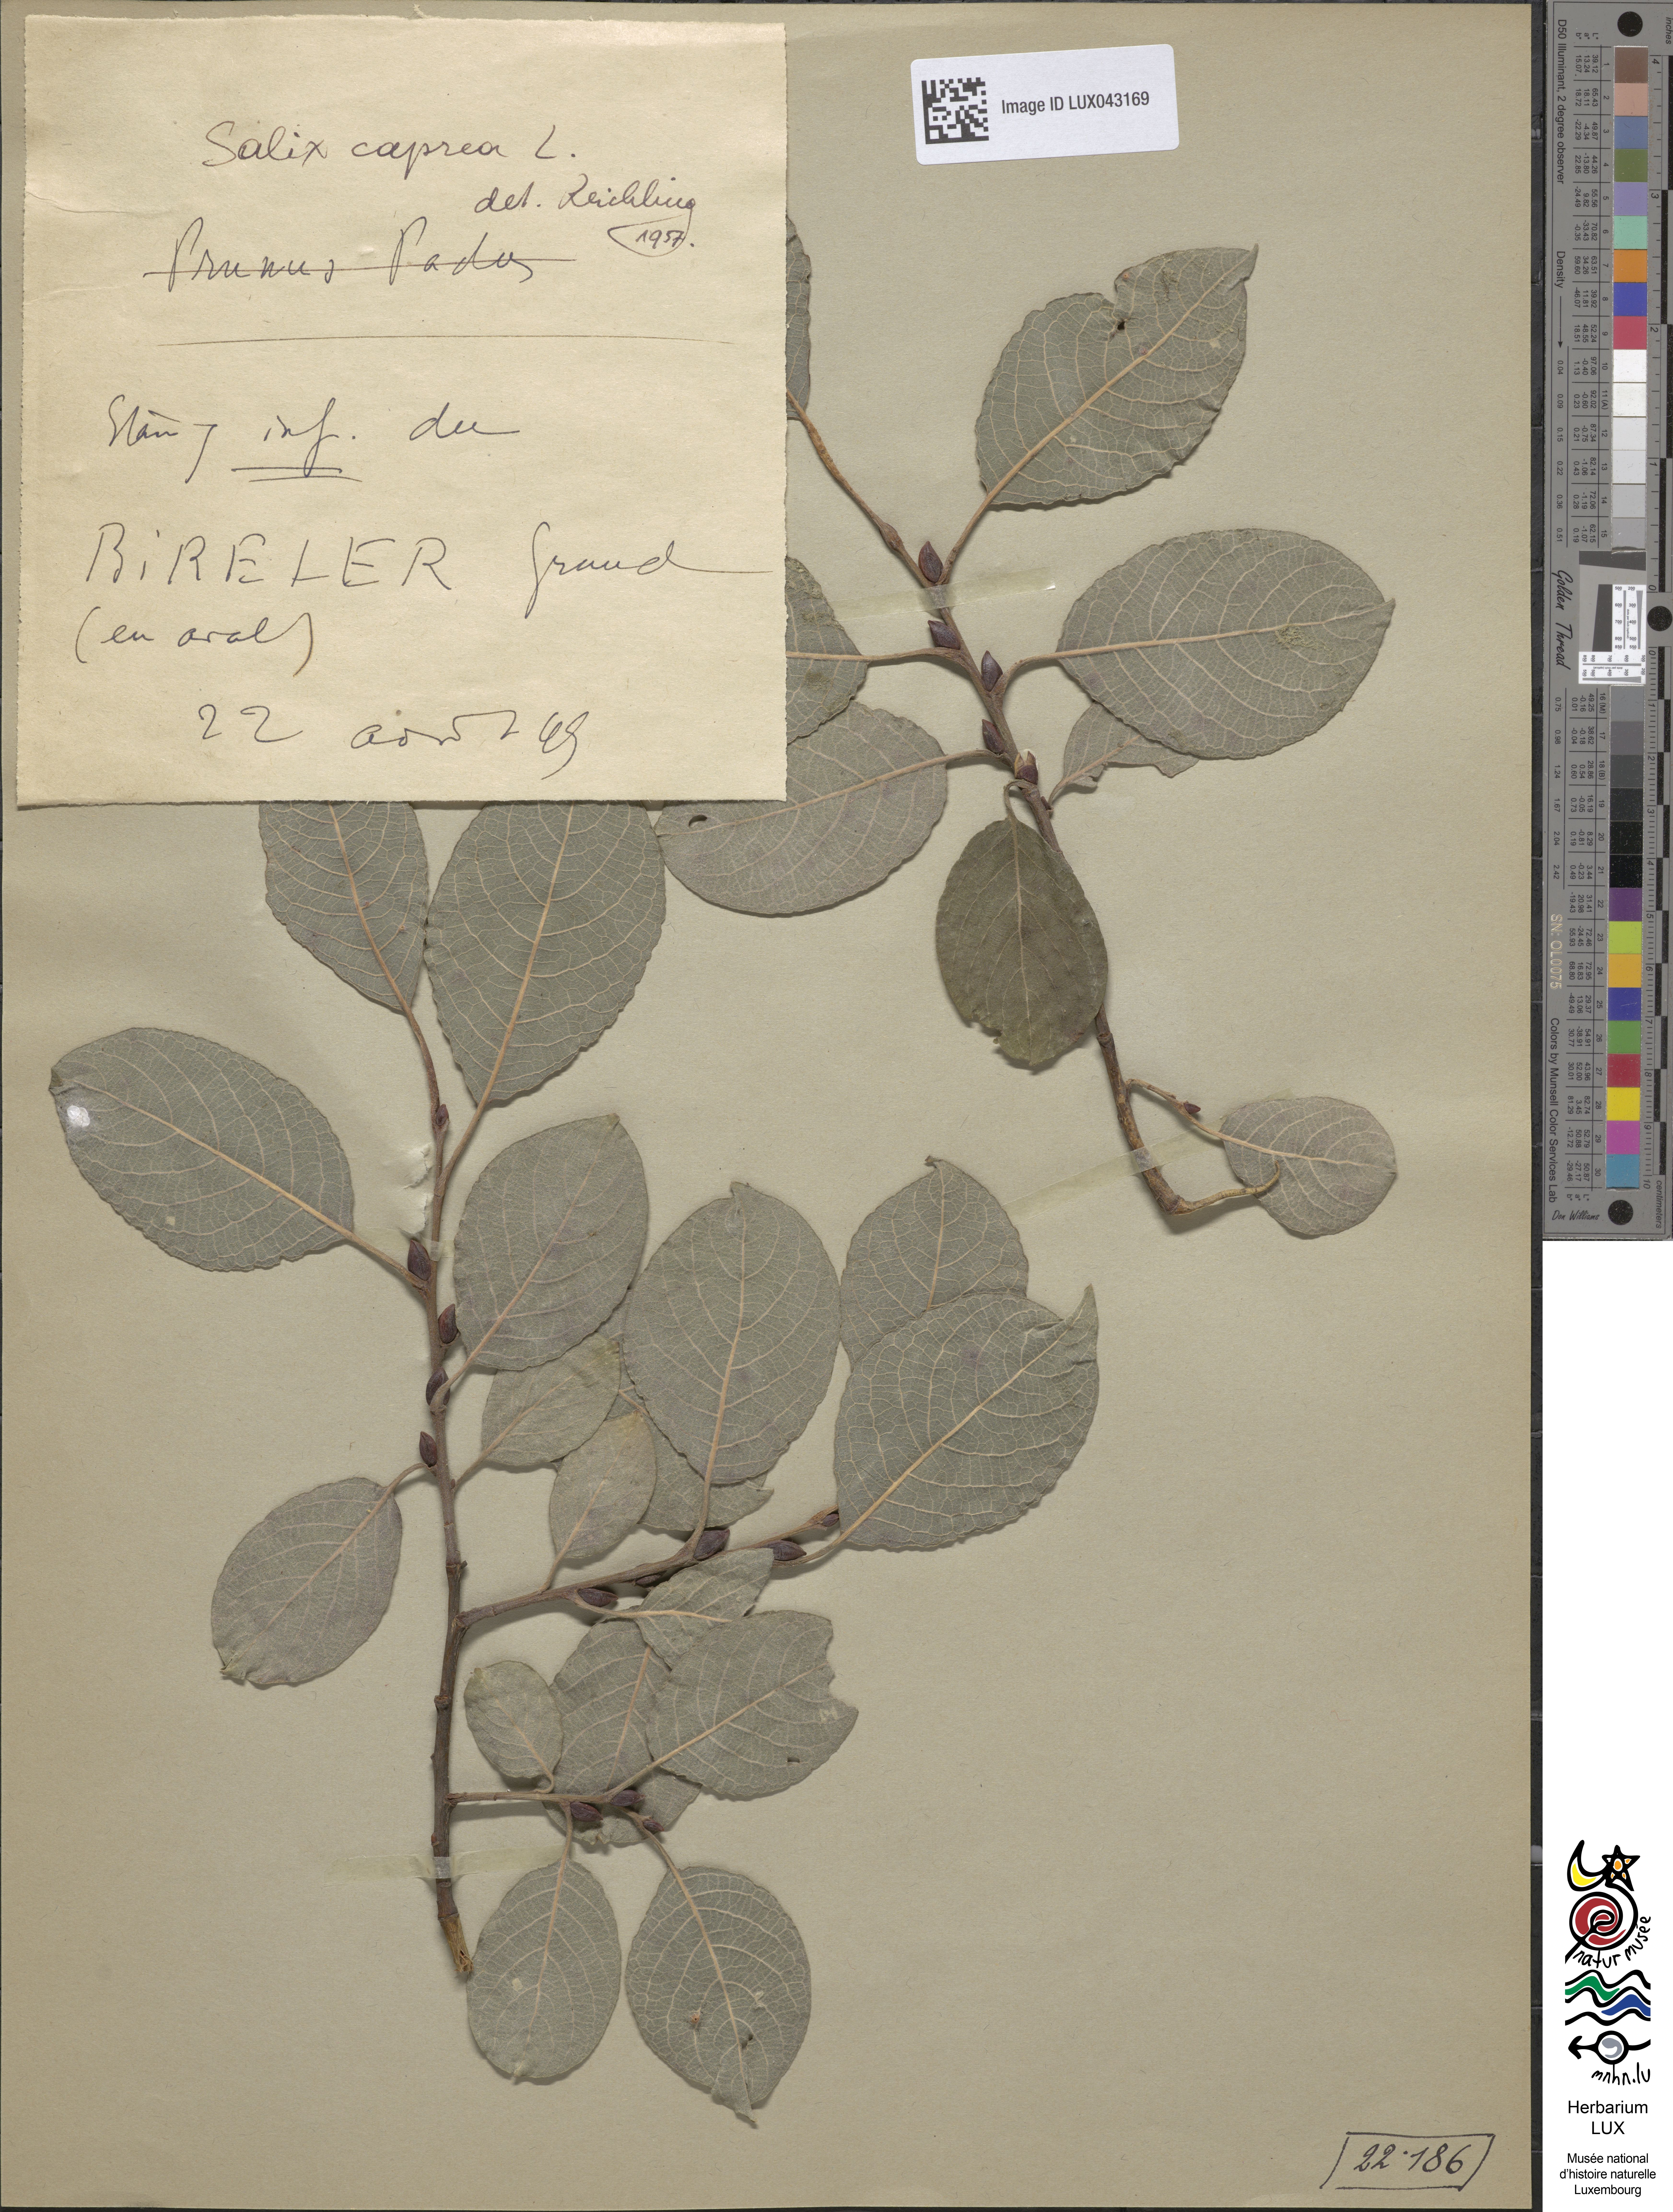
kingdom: Plantae
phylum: Tracheophyta
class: Magnoliopsida
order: Malpighiales
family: Salicaceae
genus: Salix
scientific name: Salix caprea
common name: Goat willow
